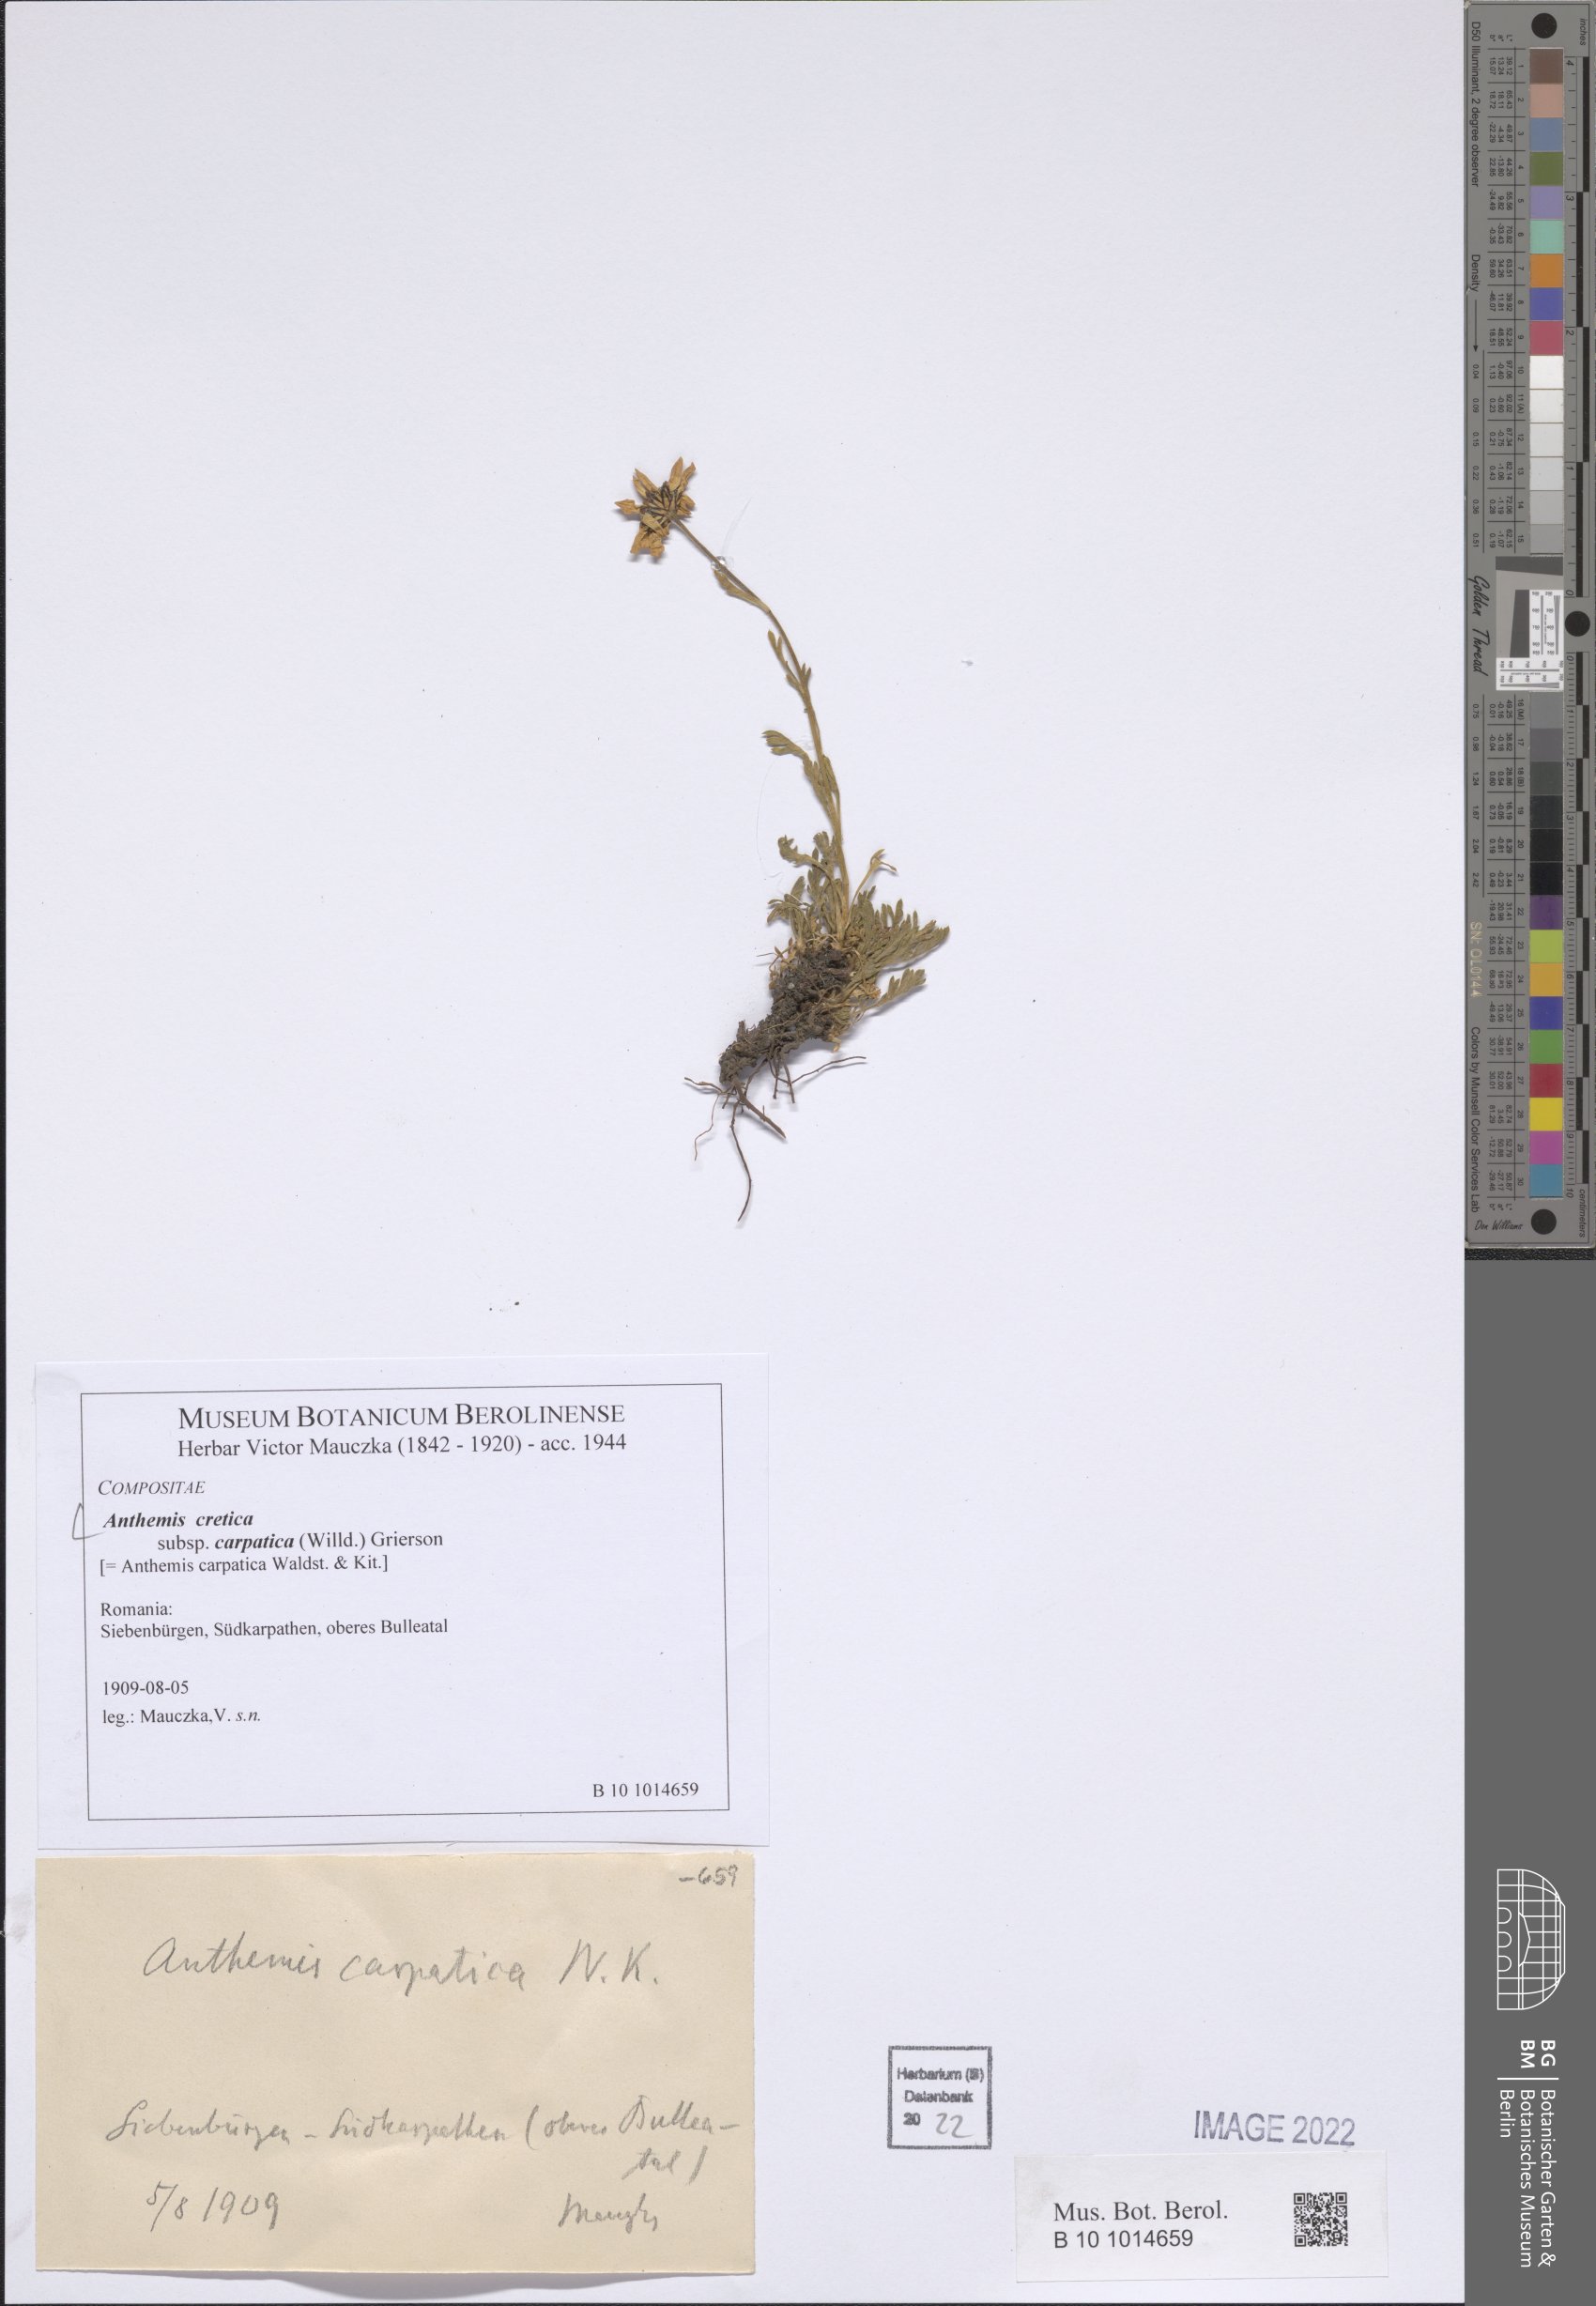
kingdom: Plantae
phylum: Tracheophyta
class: Magnoliopsida
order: Asterales
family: Asteraceae
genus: Anthemis
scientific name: Anthemis cretica
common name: Mountain dog-daisy
